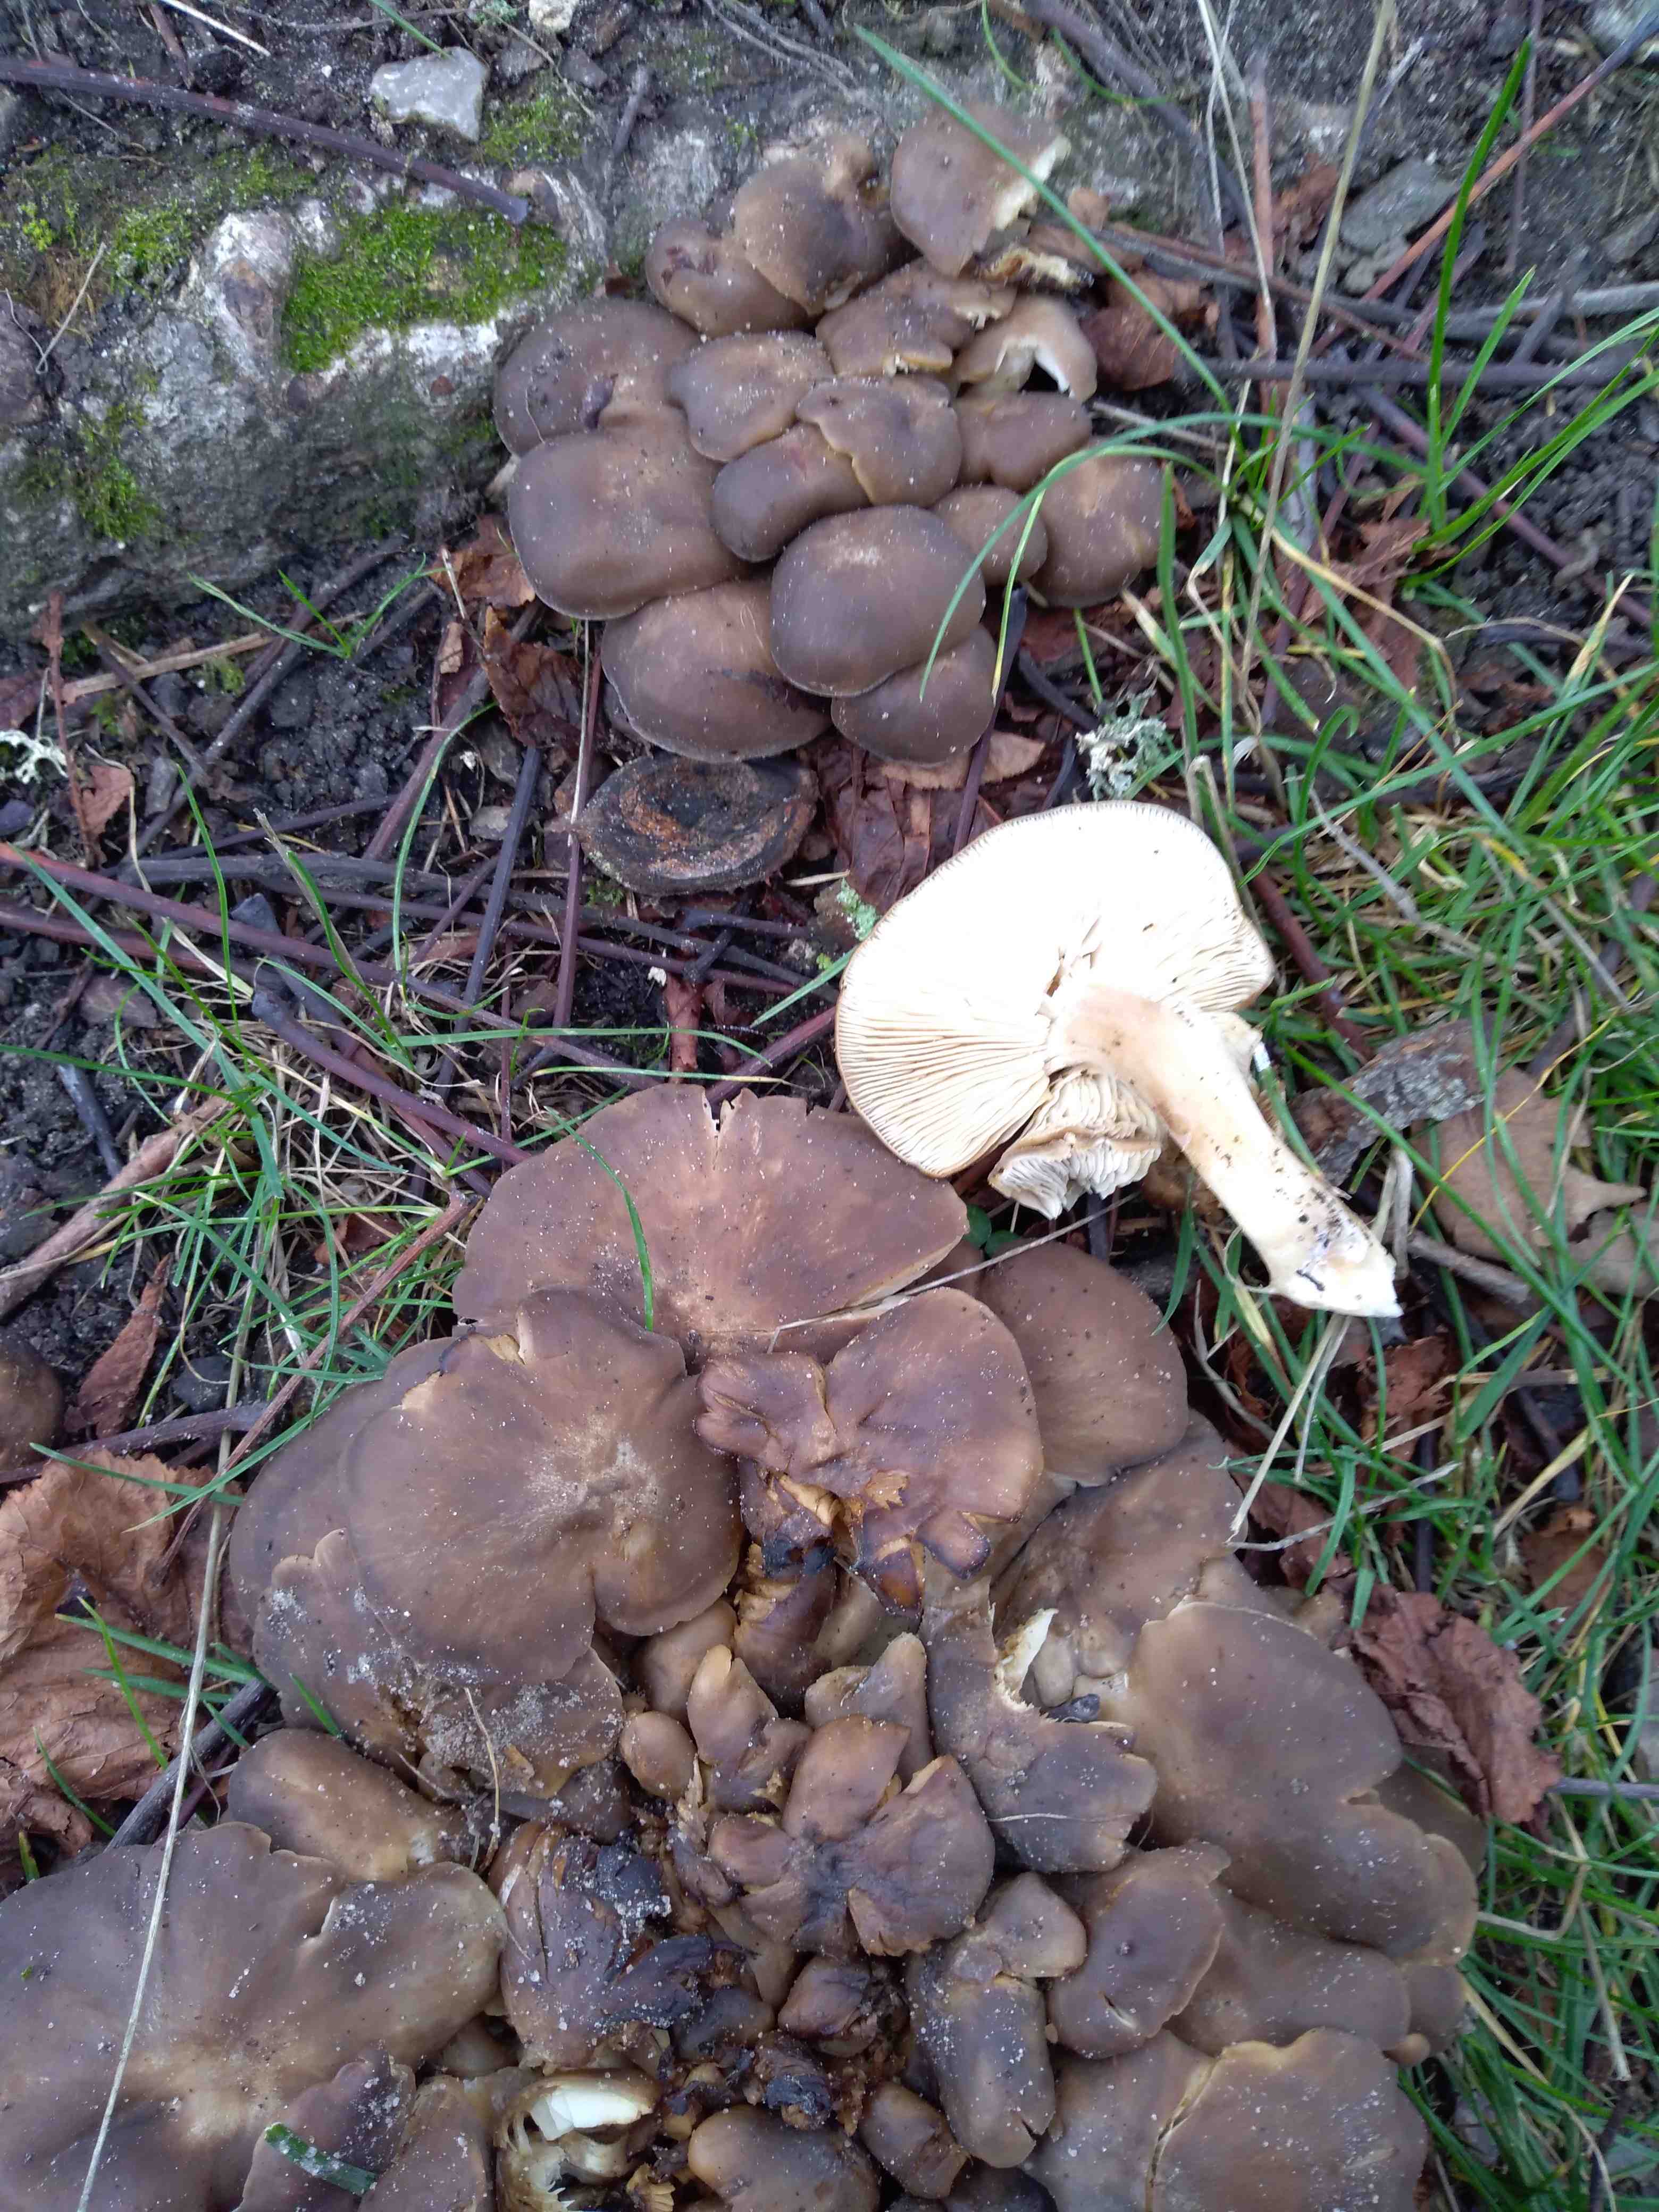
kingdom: Fungi
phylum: Basidiomycota
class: Agaricomycetes
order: Agaricales
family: Lyophyllaceae
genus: Lyophyllum
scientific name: Lyophyllum decastes
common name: Clustered domecap
